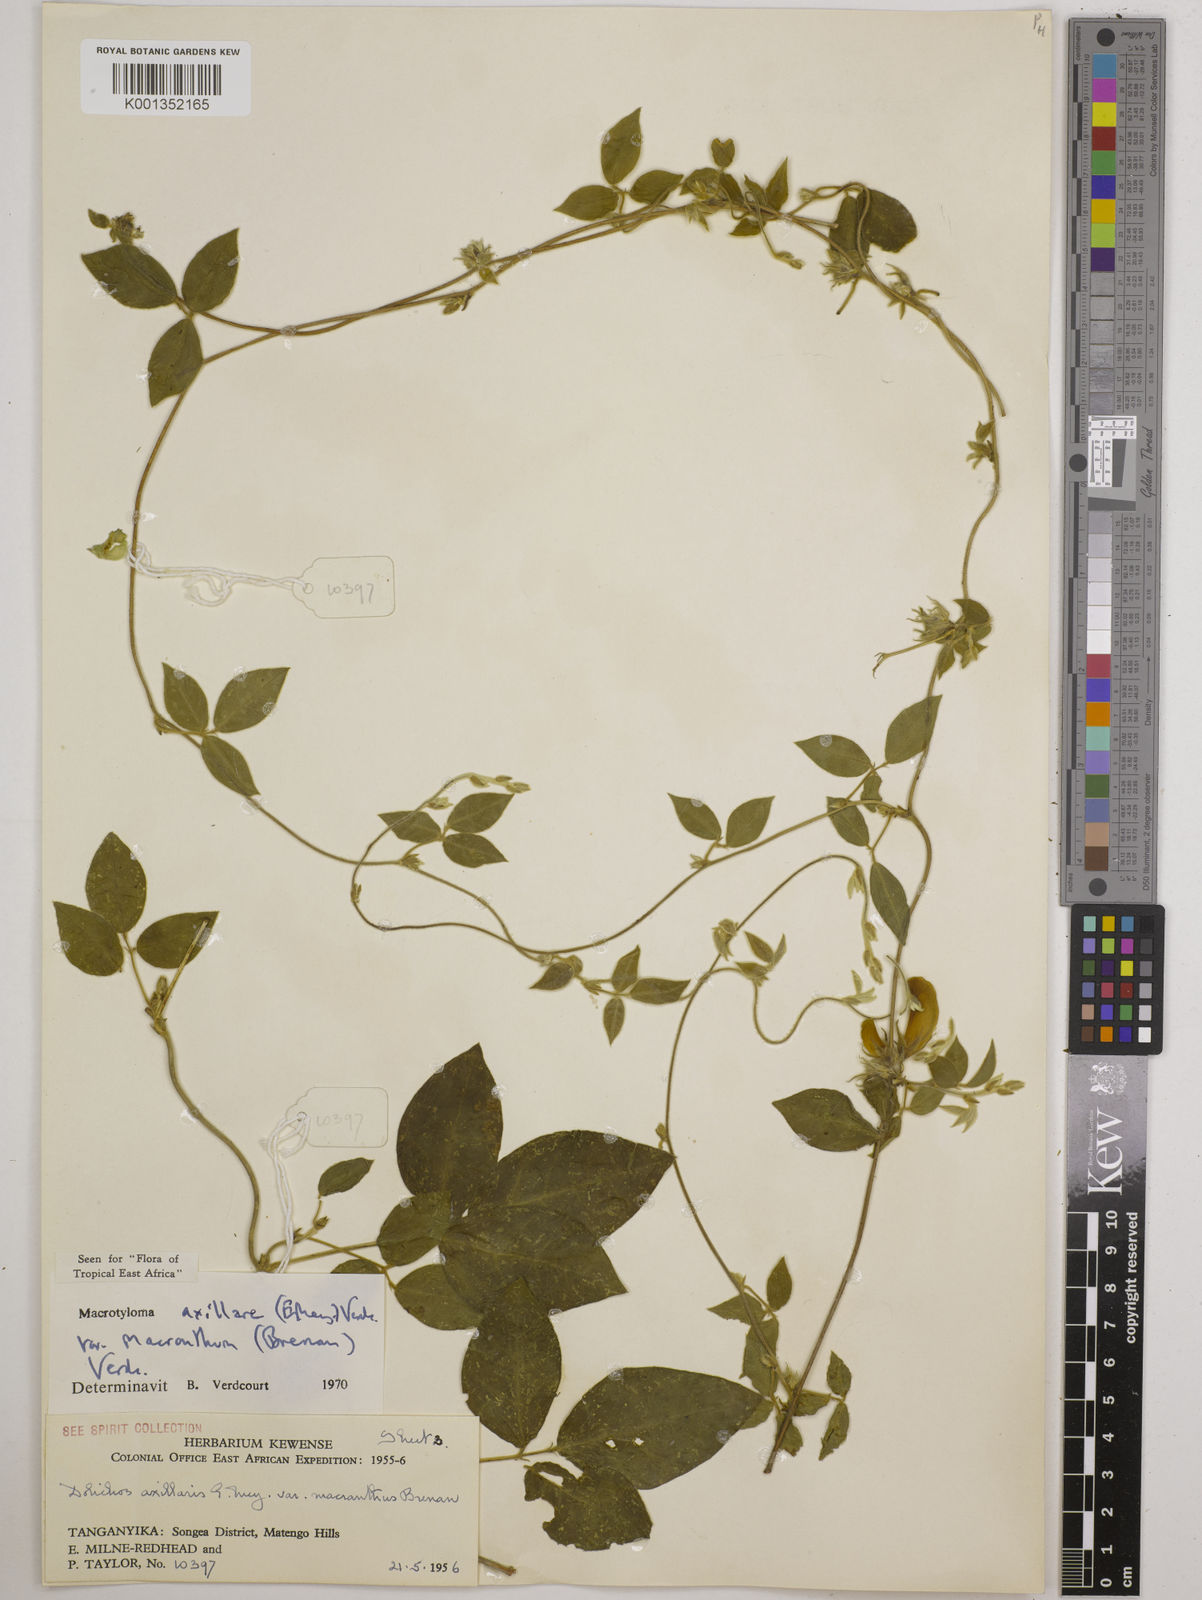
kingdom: Plantae
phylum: Tracheophyta
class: Magnoliopsida
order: Fabales
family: Fabaceae
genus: Macrotyloma
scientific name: Macrotyloma
